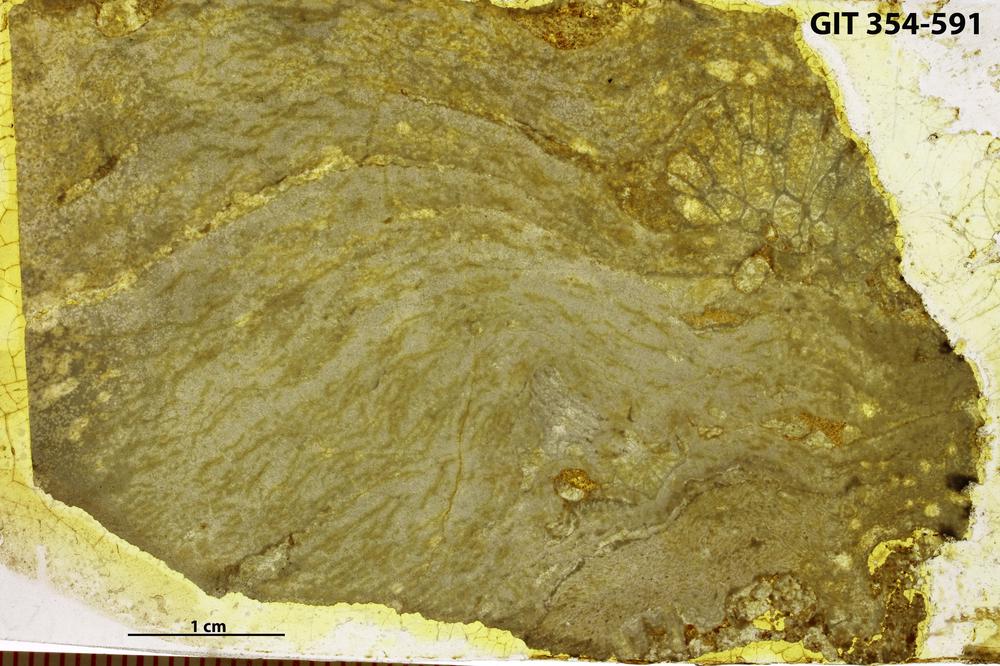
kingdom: Animalia
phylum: Porifera
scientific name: Porifera
